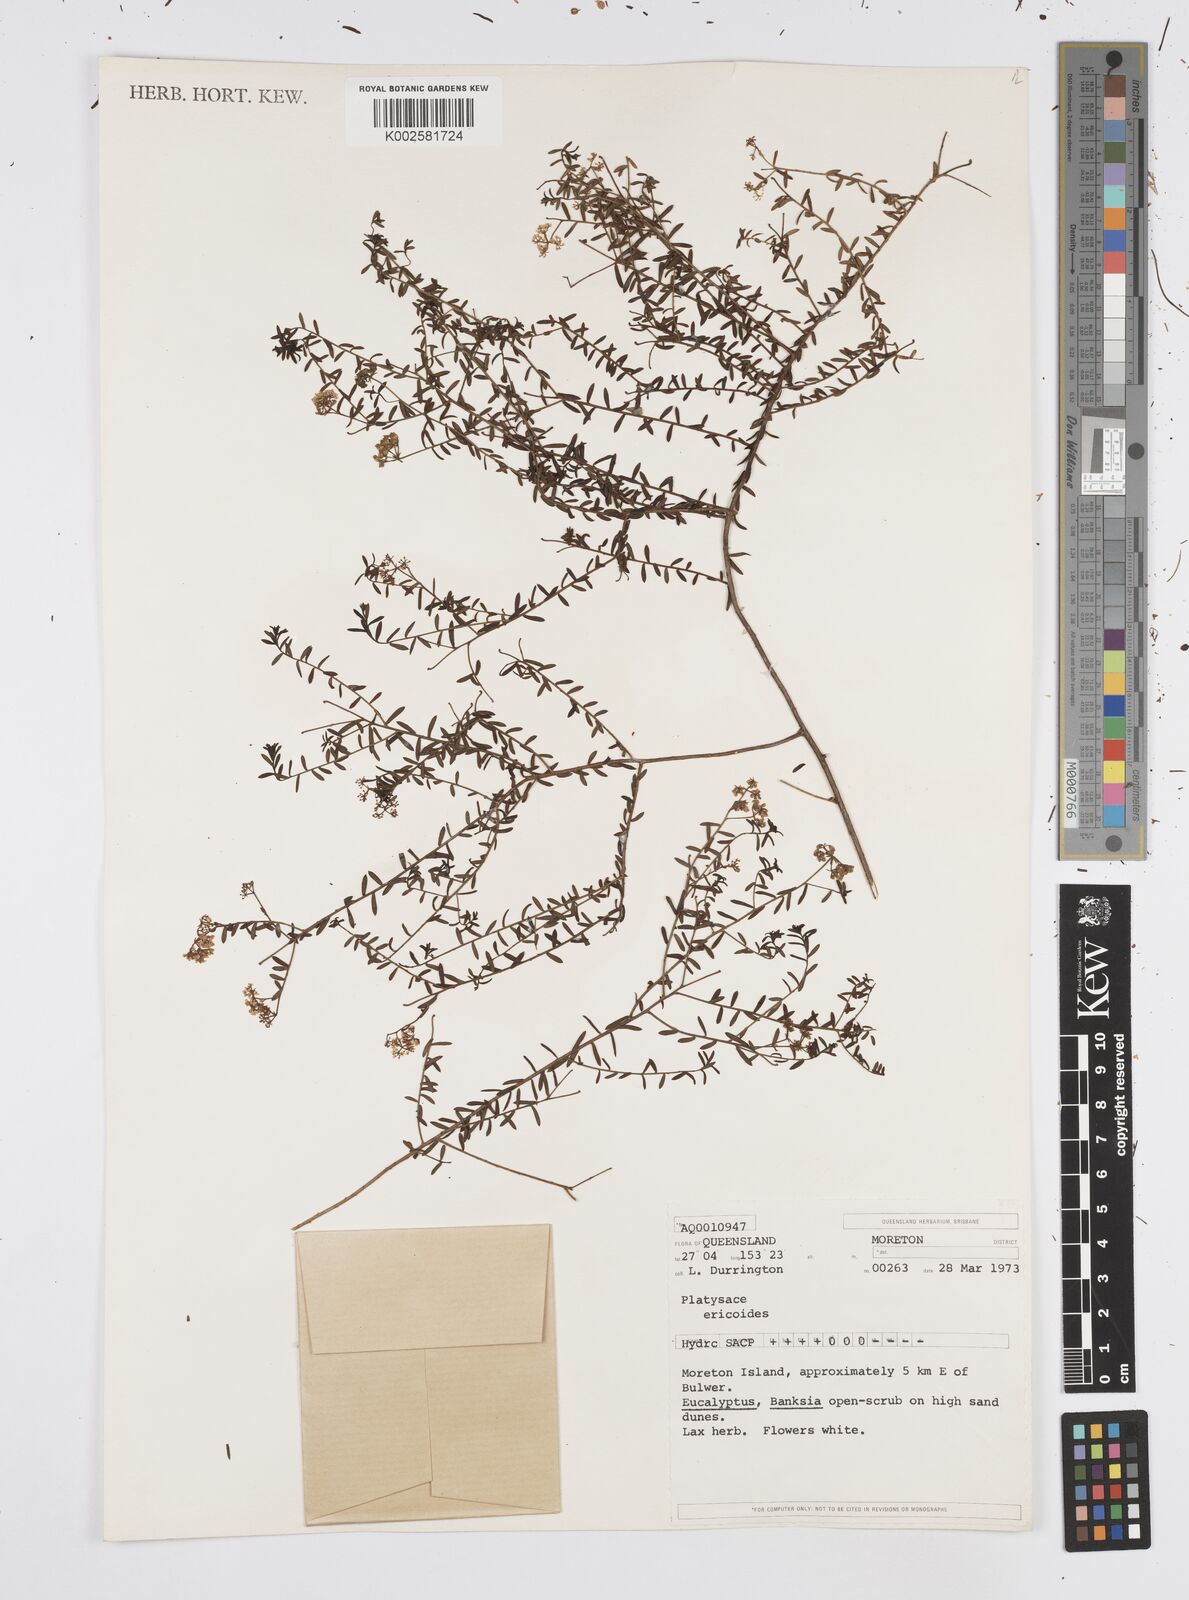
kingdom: Plantae
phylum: Tracheophyta
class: Magnoliopsida
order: Apiales
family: Apiaceae
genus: Platysace
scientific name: Platysace ericoides
